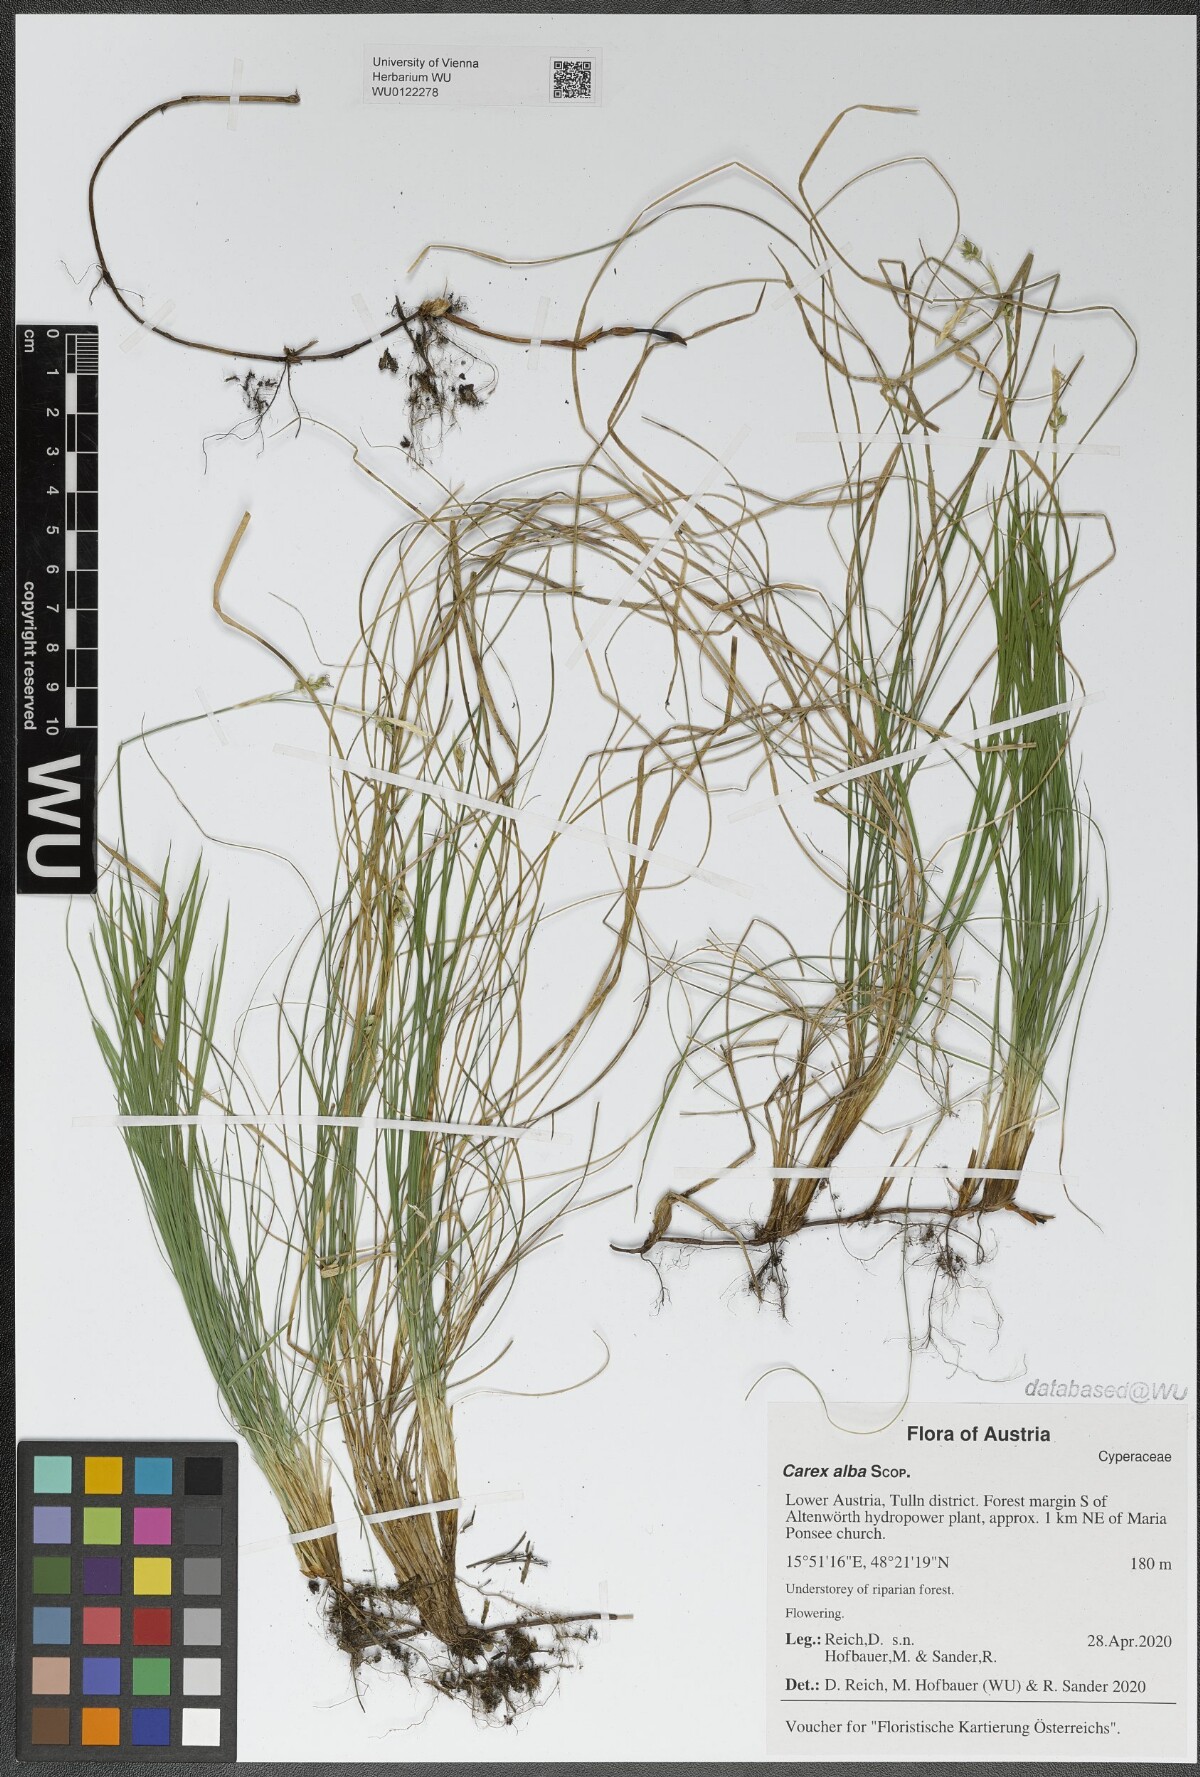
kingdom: Plantae
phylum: Tracheophyta
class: Liliopsida
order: Poales
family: Cyperaceae
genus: Carex
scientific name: Carex alba
